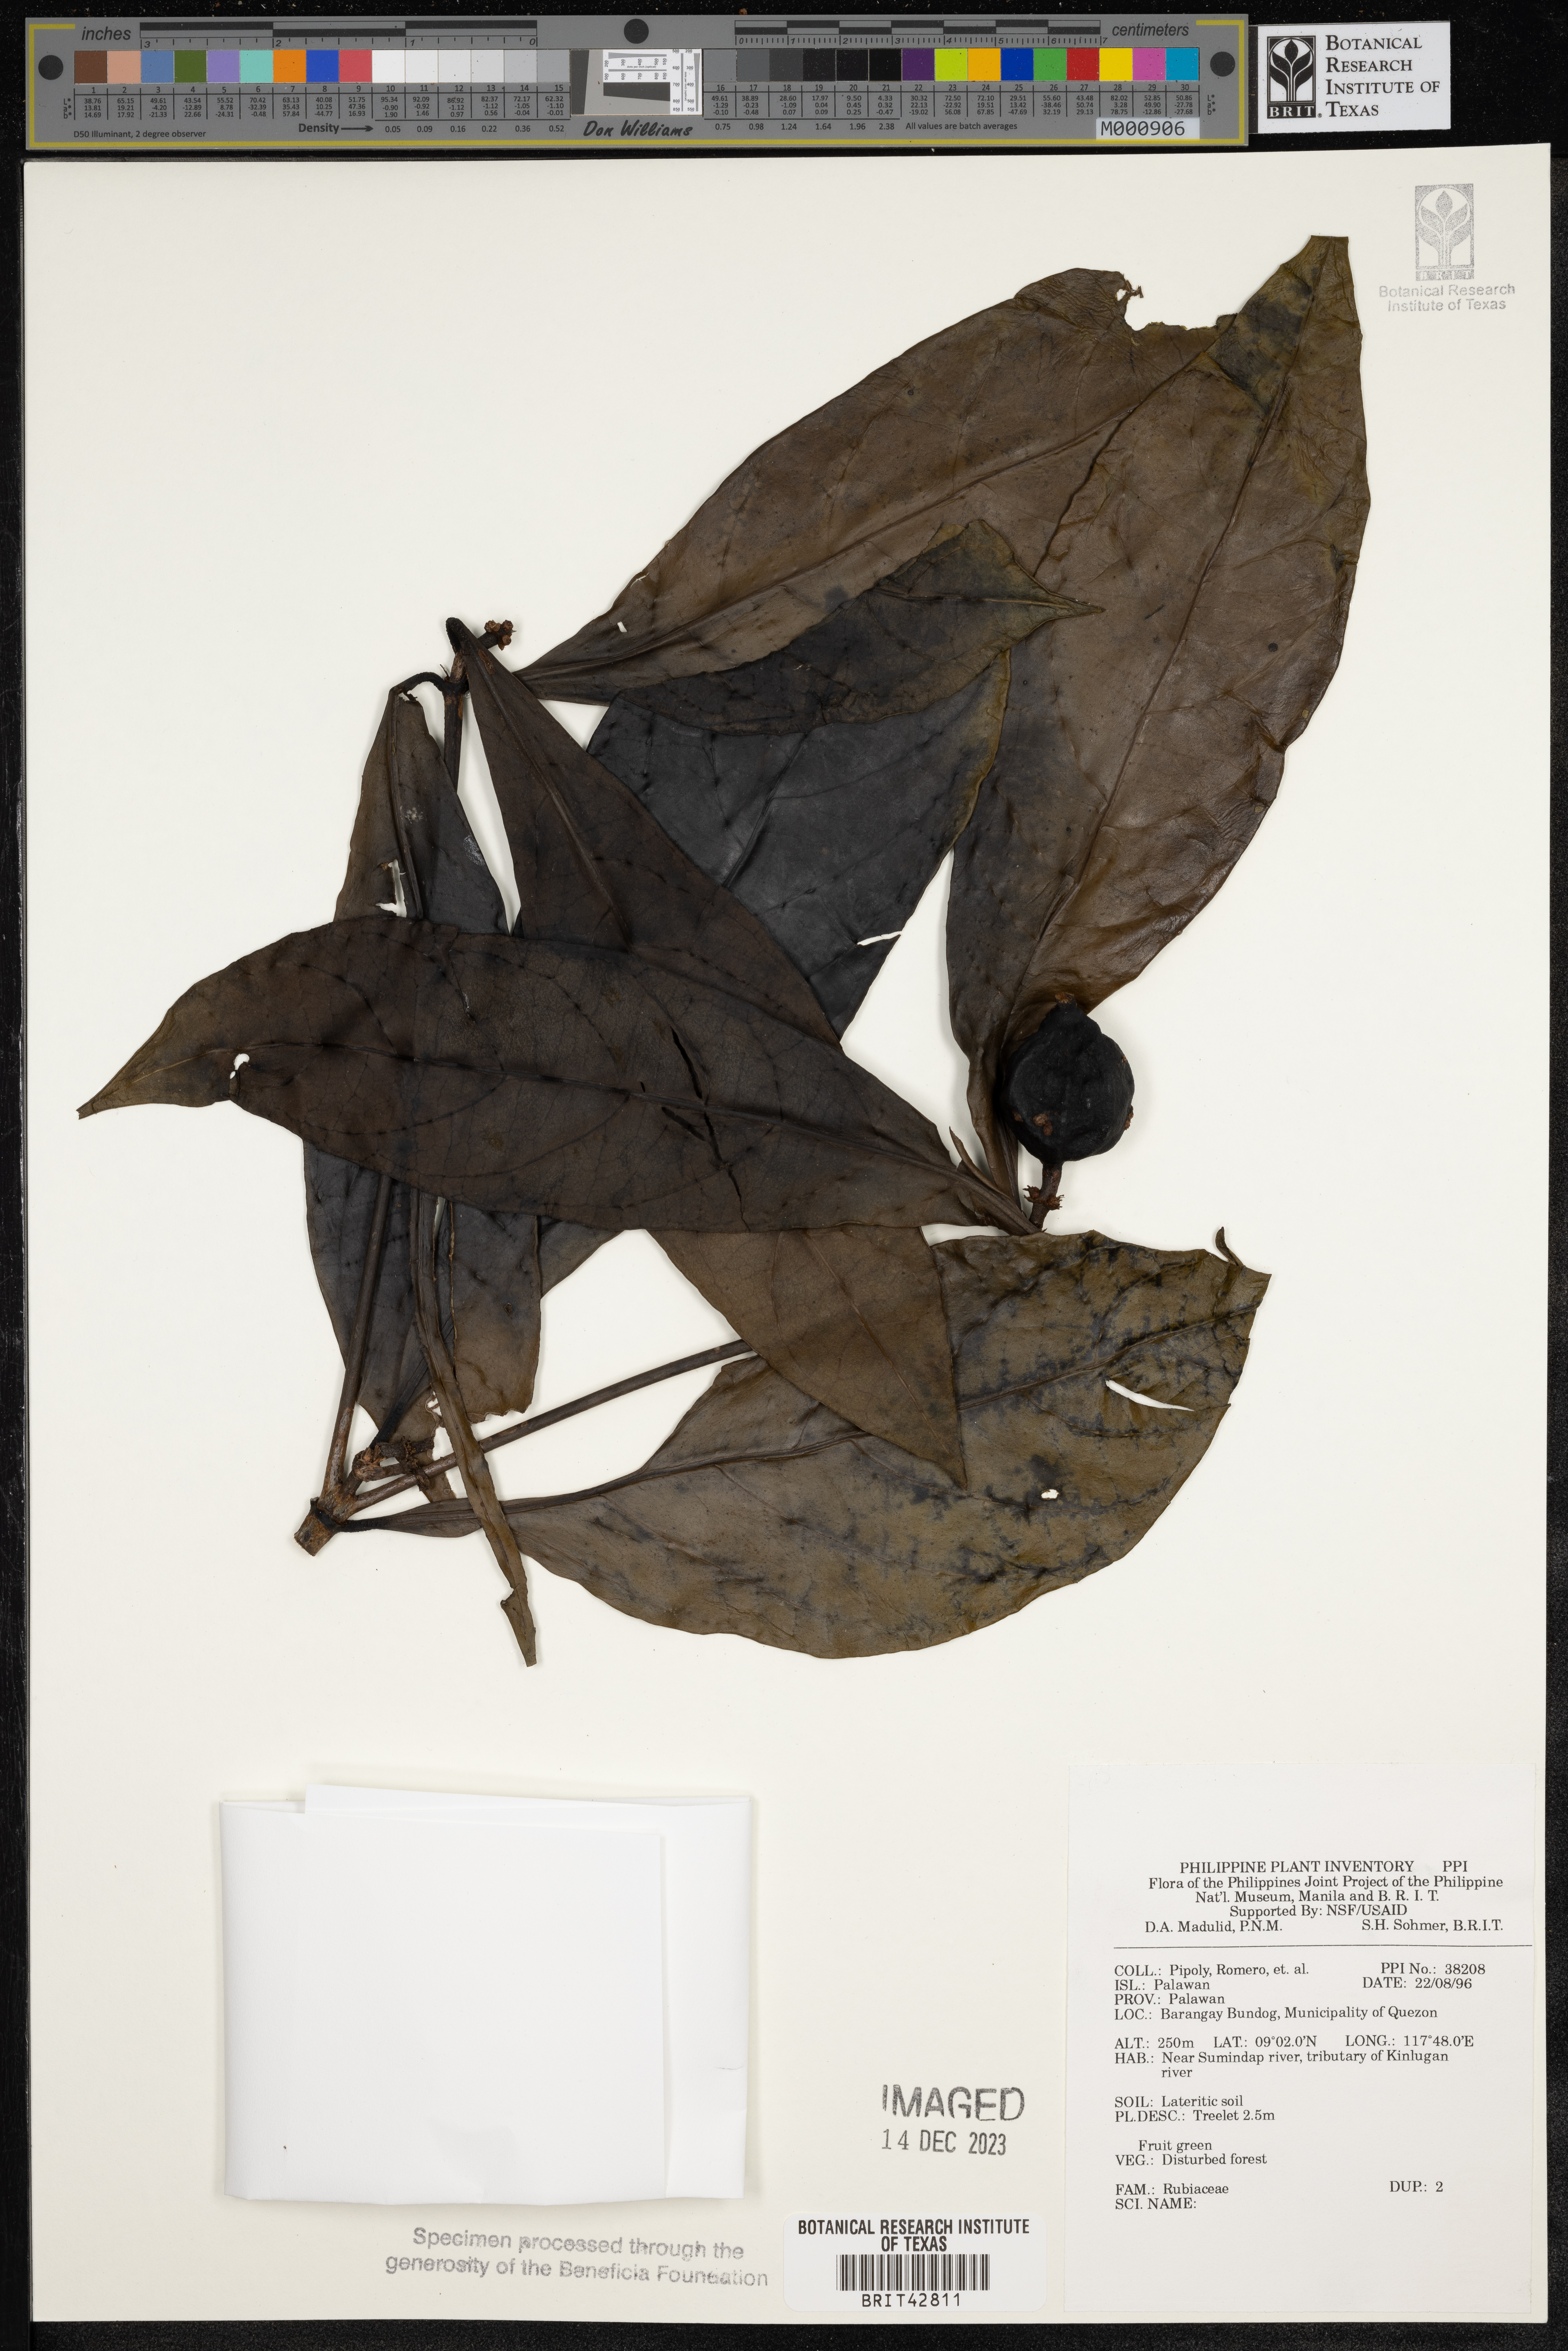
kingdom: Plantae
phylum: Tracheophyta
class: Magnoliopsida
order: Gentianales
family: Rubiaceae
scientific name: Rubiaceae
